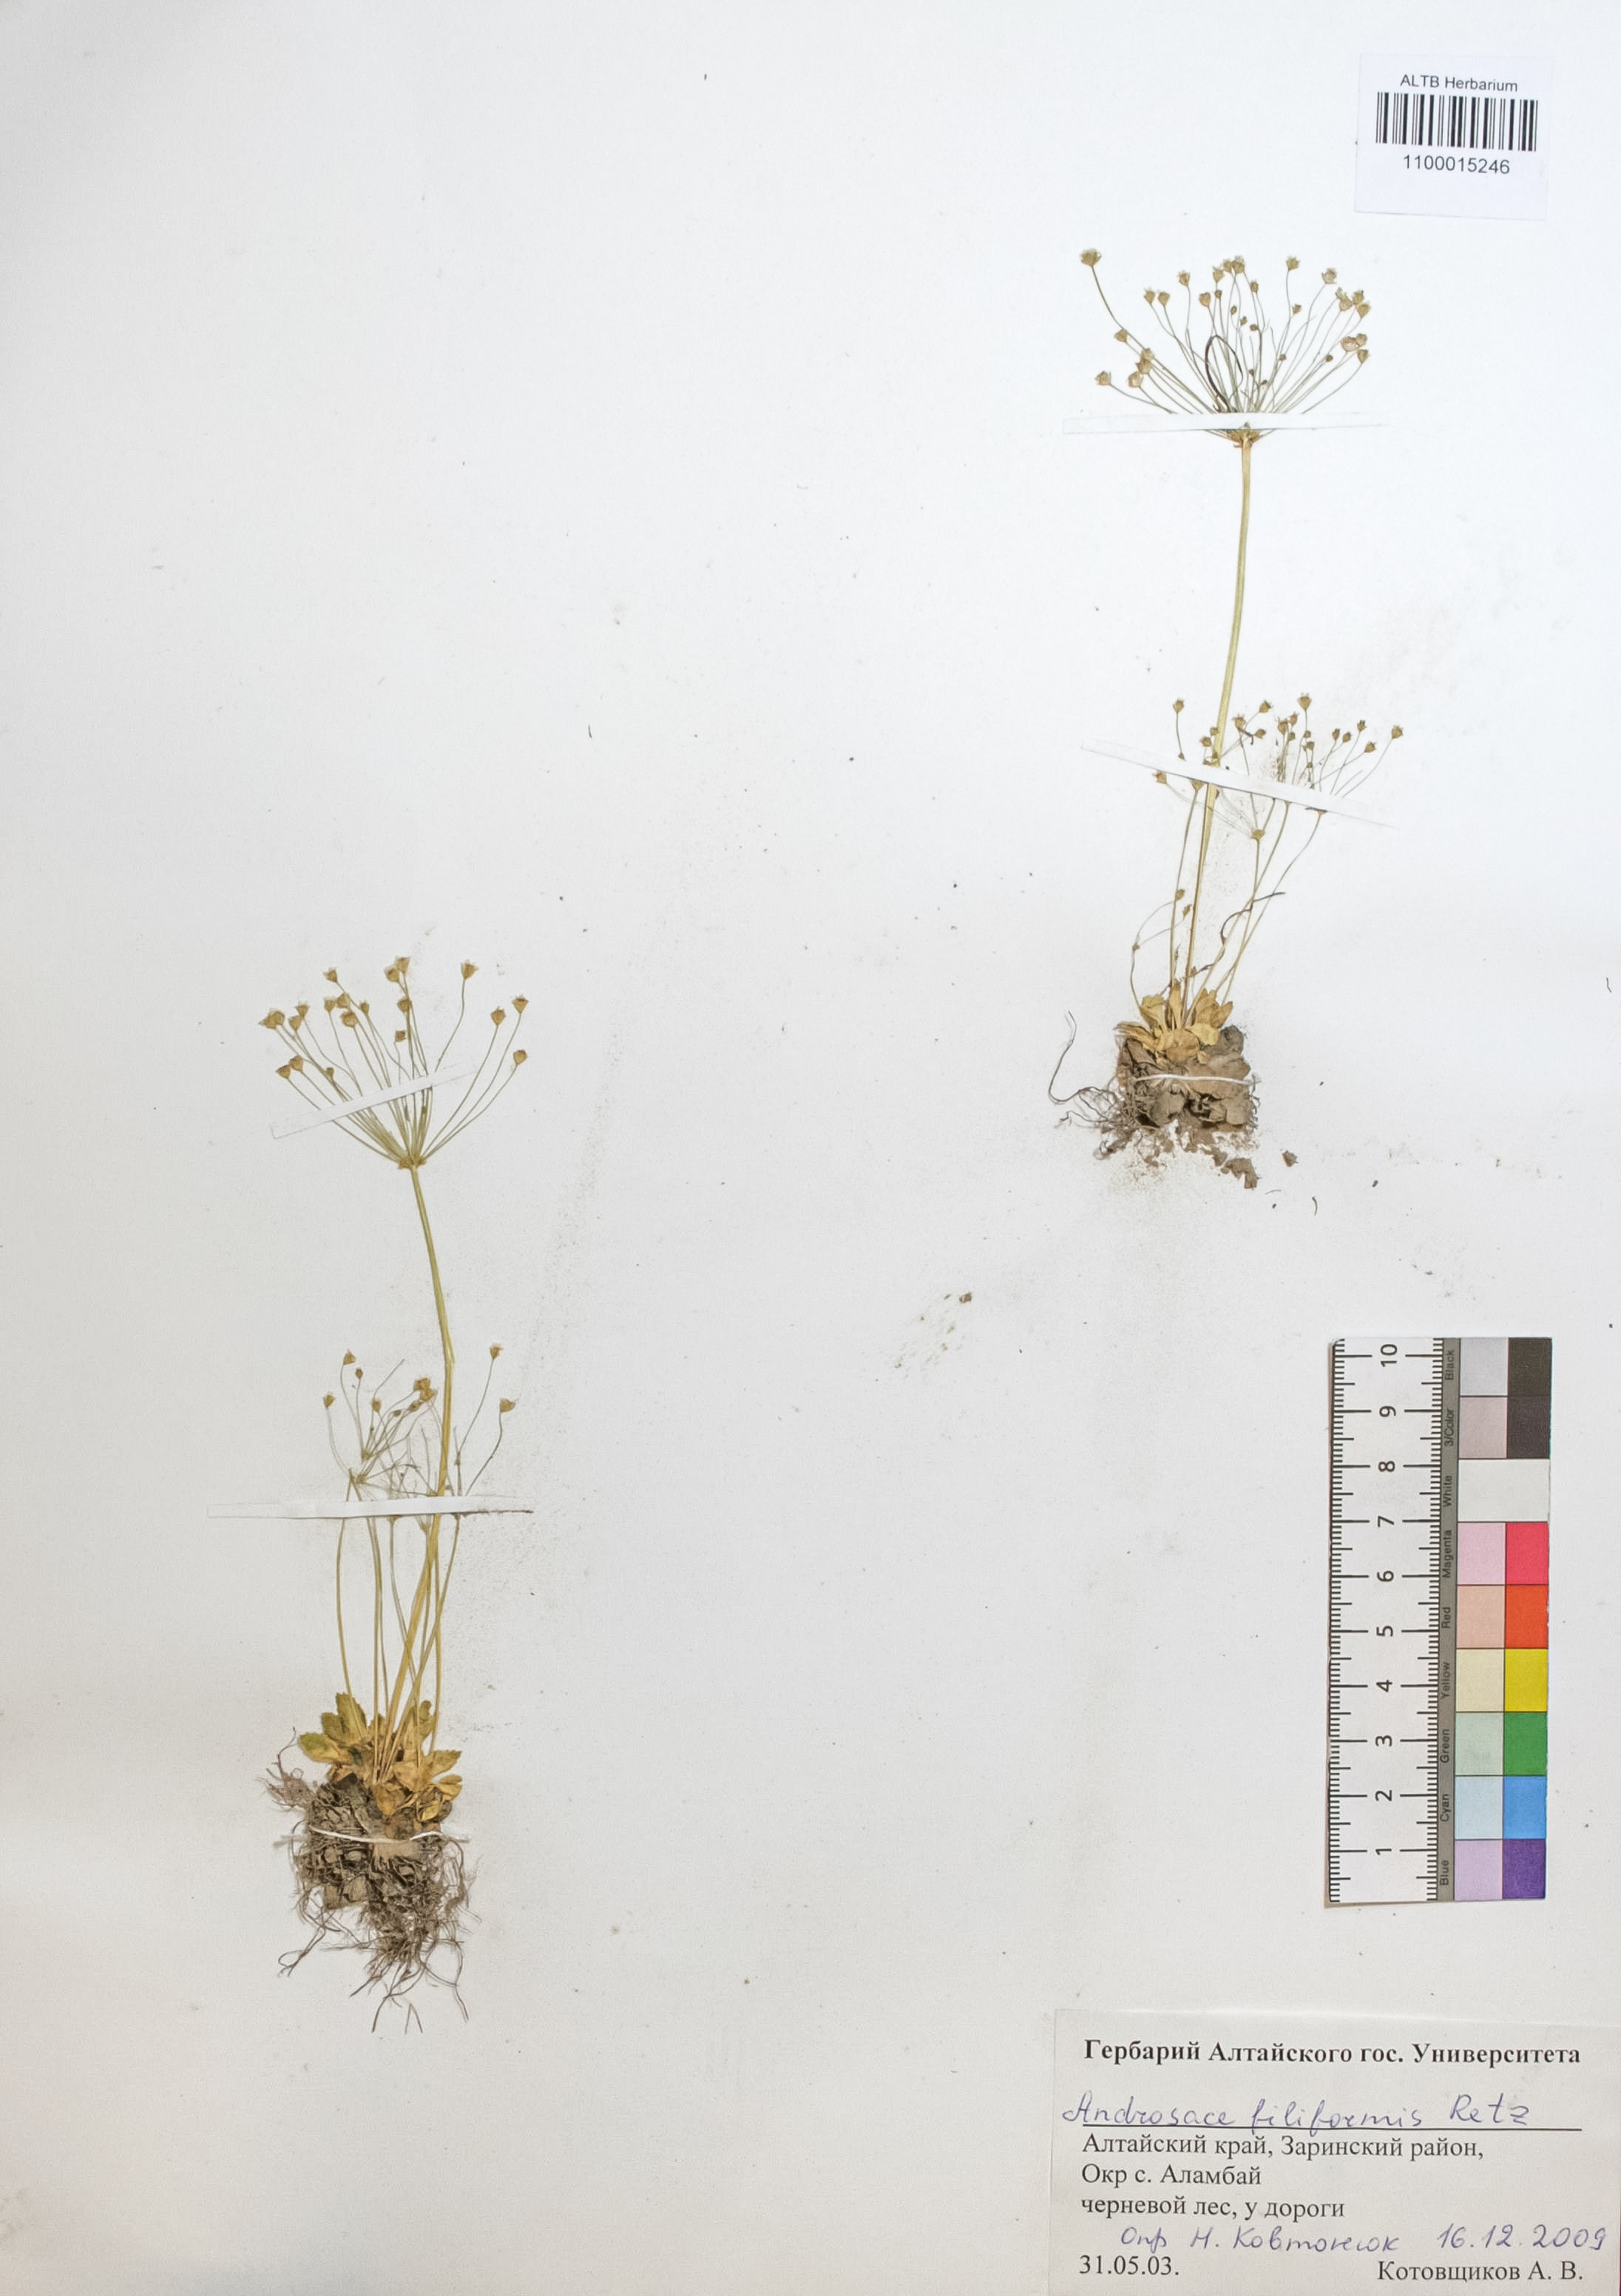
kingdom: Plantae
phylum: Tracheophyta
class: Magnoliopsida
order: Ericales
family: Primulaceae
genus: Androsace
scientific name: Androsace filiformis
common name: Filiform rock jasmine
